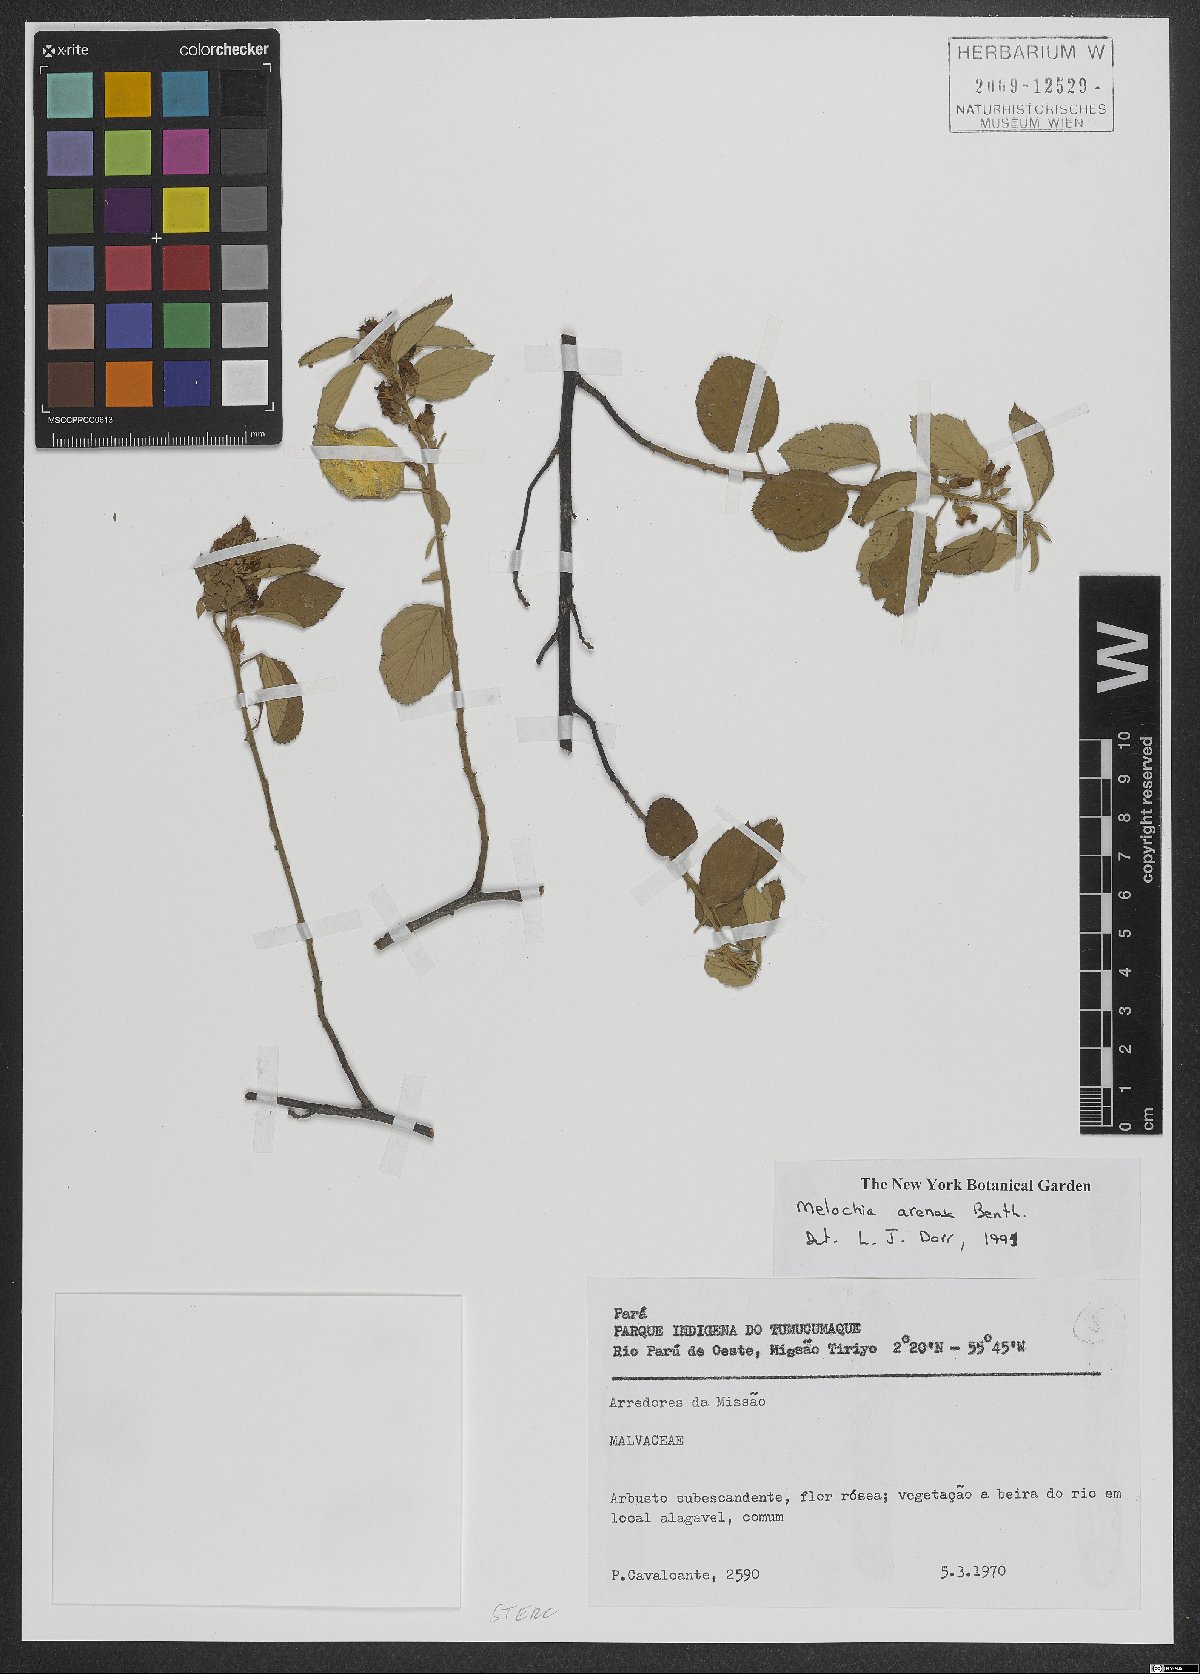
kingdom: Plantae
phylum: Tracheophyta
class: Magnoliopsida
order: Malvales
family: Malvaceae
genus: Melochia
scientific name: Melochia arenosa
